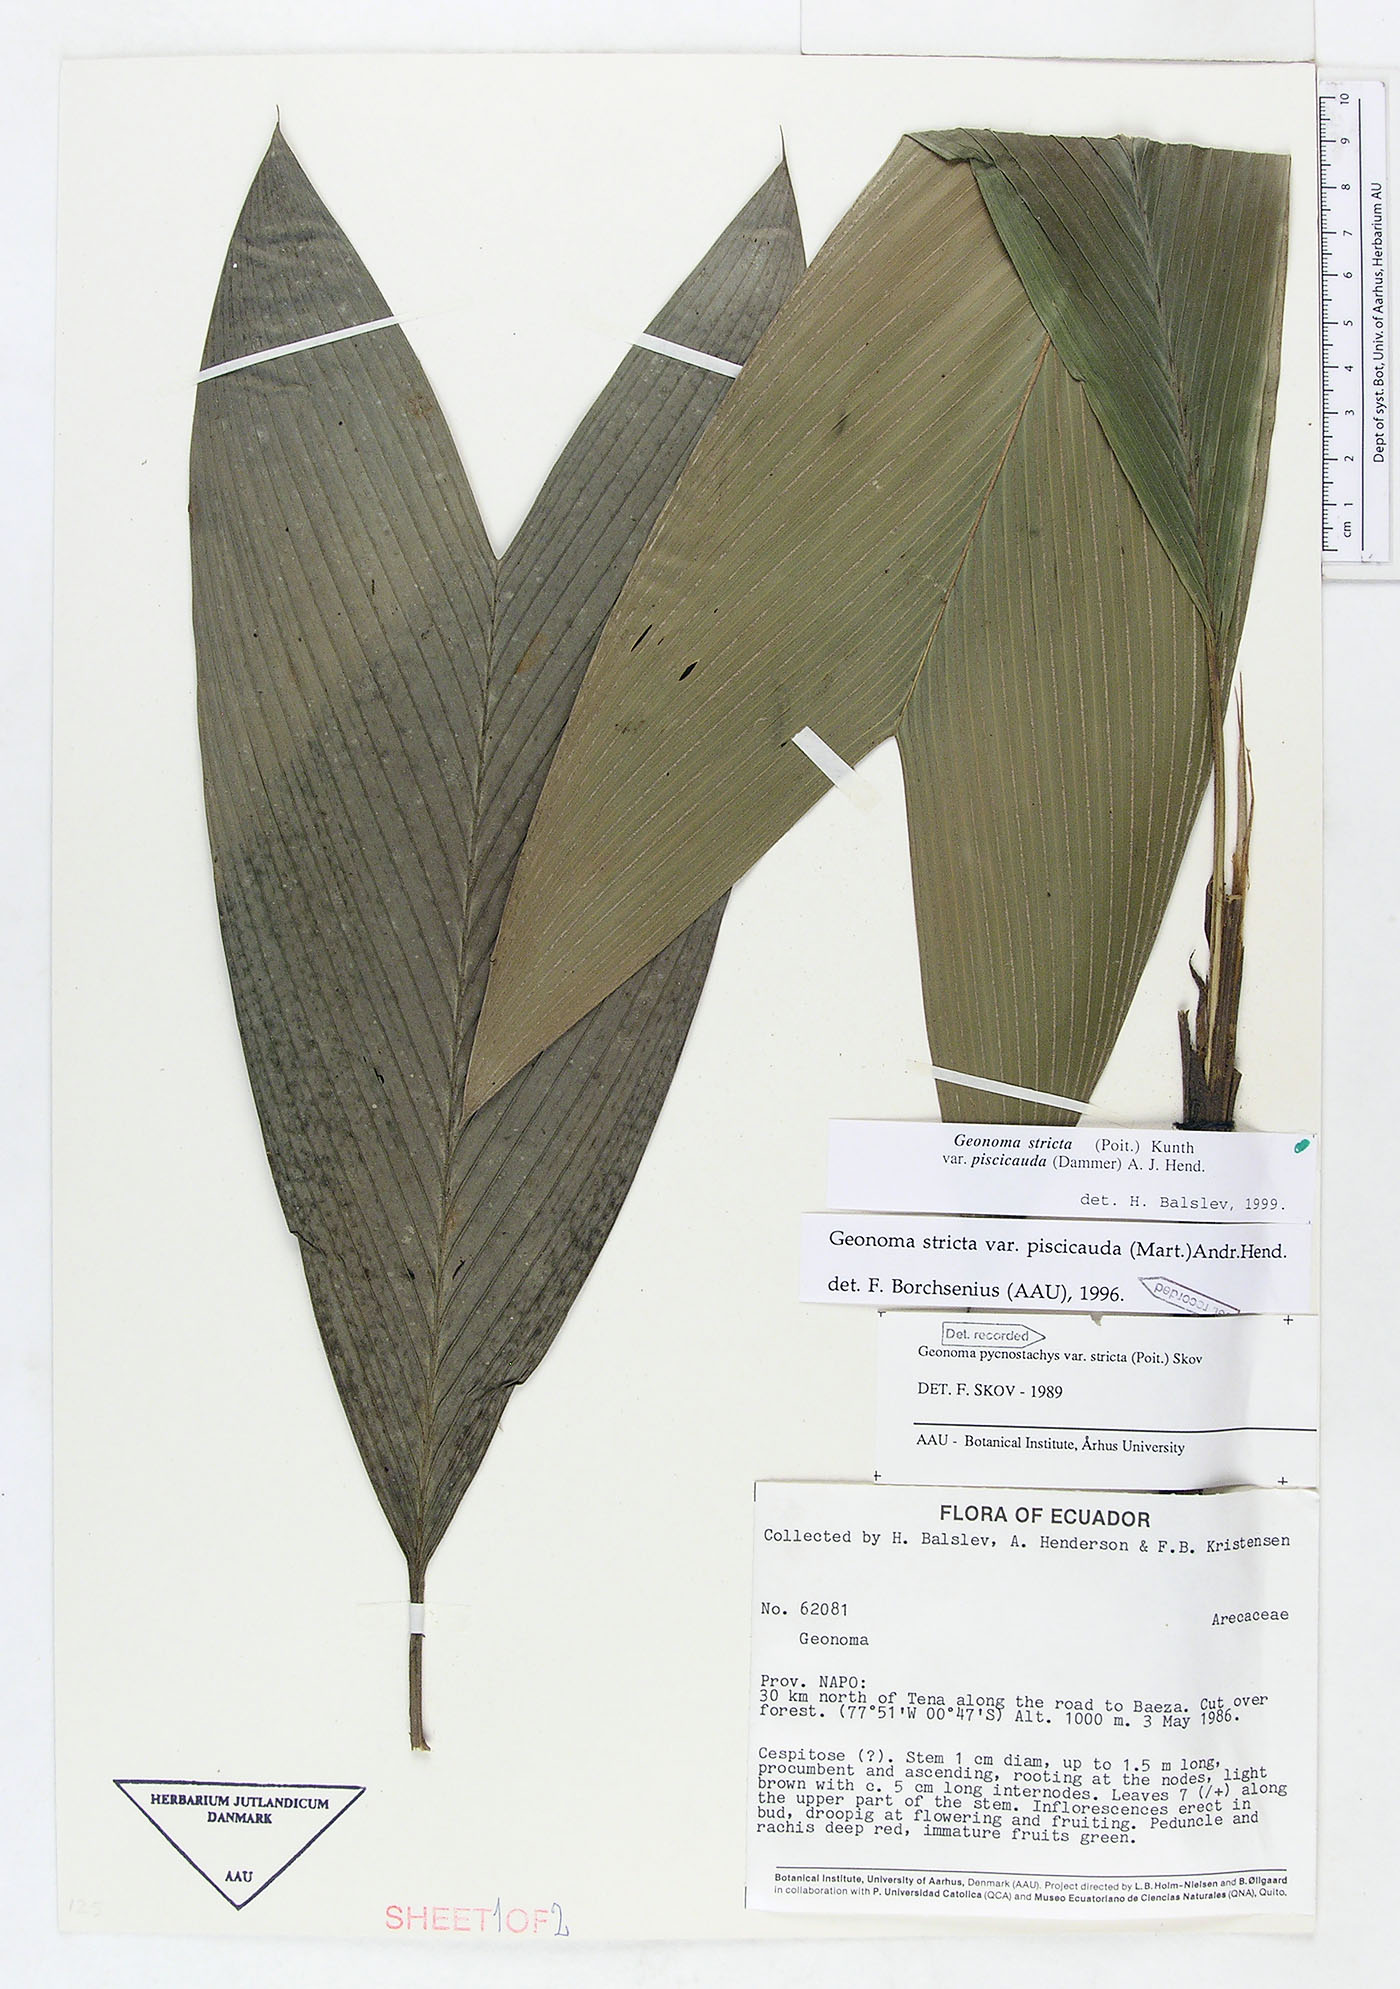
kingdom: Plantae
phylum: Tracheophyta
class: Liliopsida
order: Arecales
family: Arecaceae
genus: Geonoma
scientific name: Geonoma stricta
